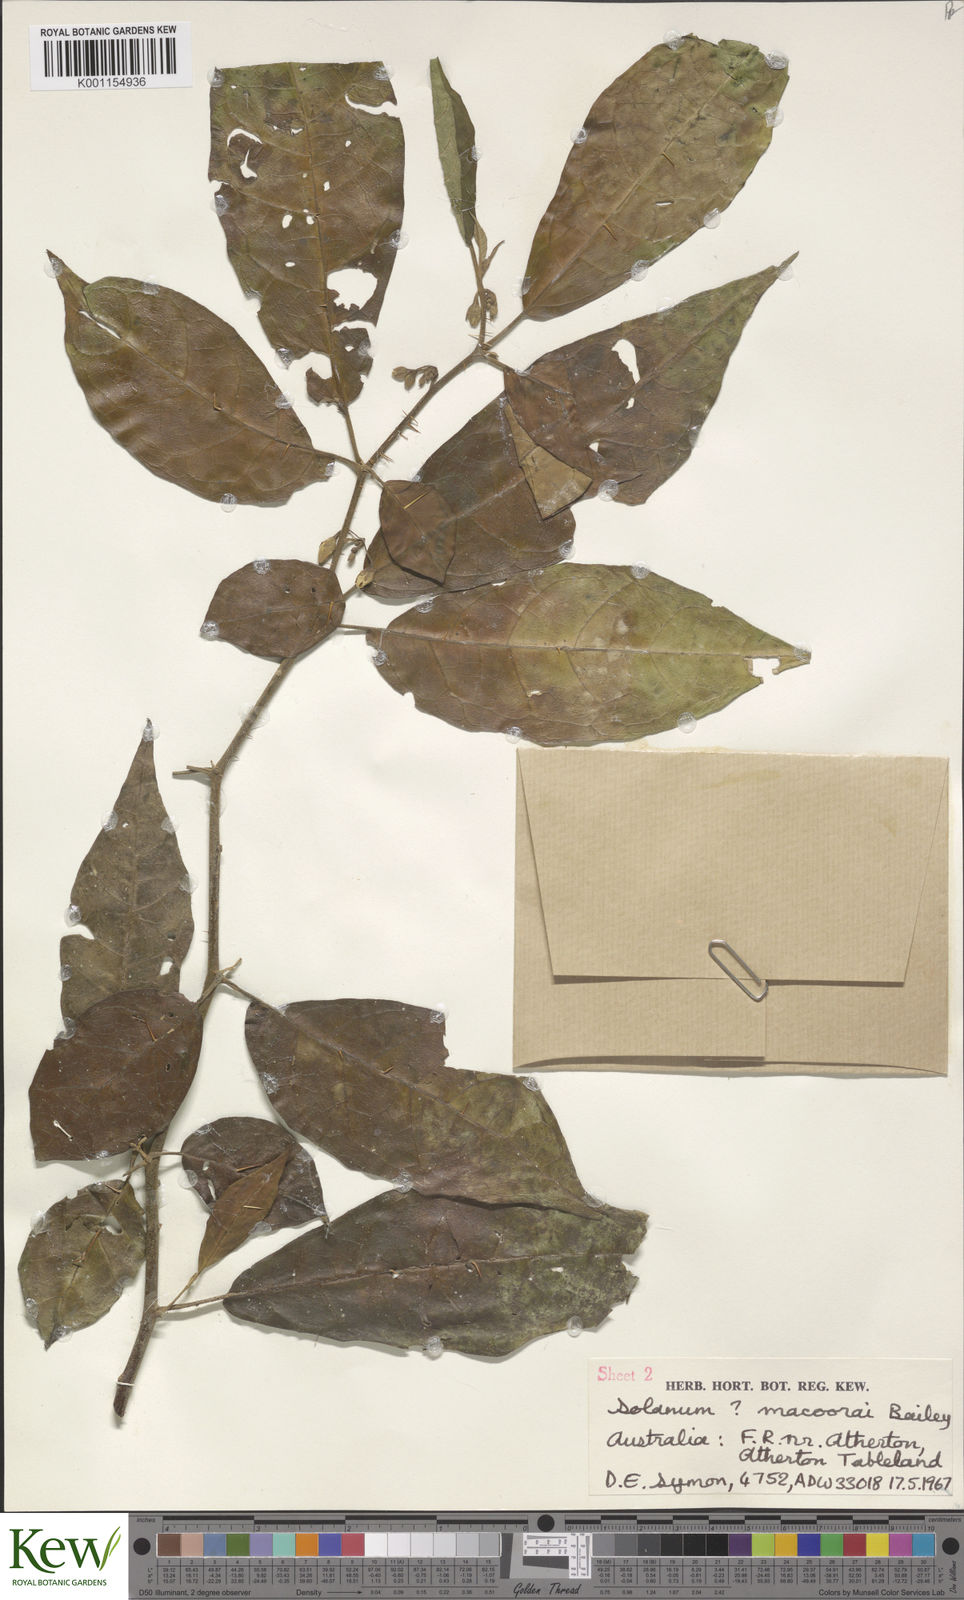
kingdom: Plantae
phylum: Tracheophyta
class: Magnoliopsida
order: Solanales
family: Solanaceae
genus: Solanum
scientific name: Solanum macoorai
